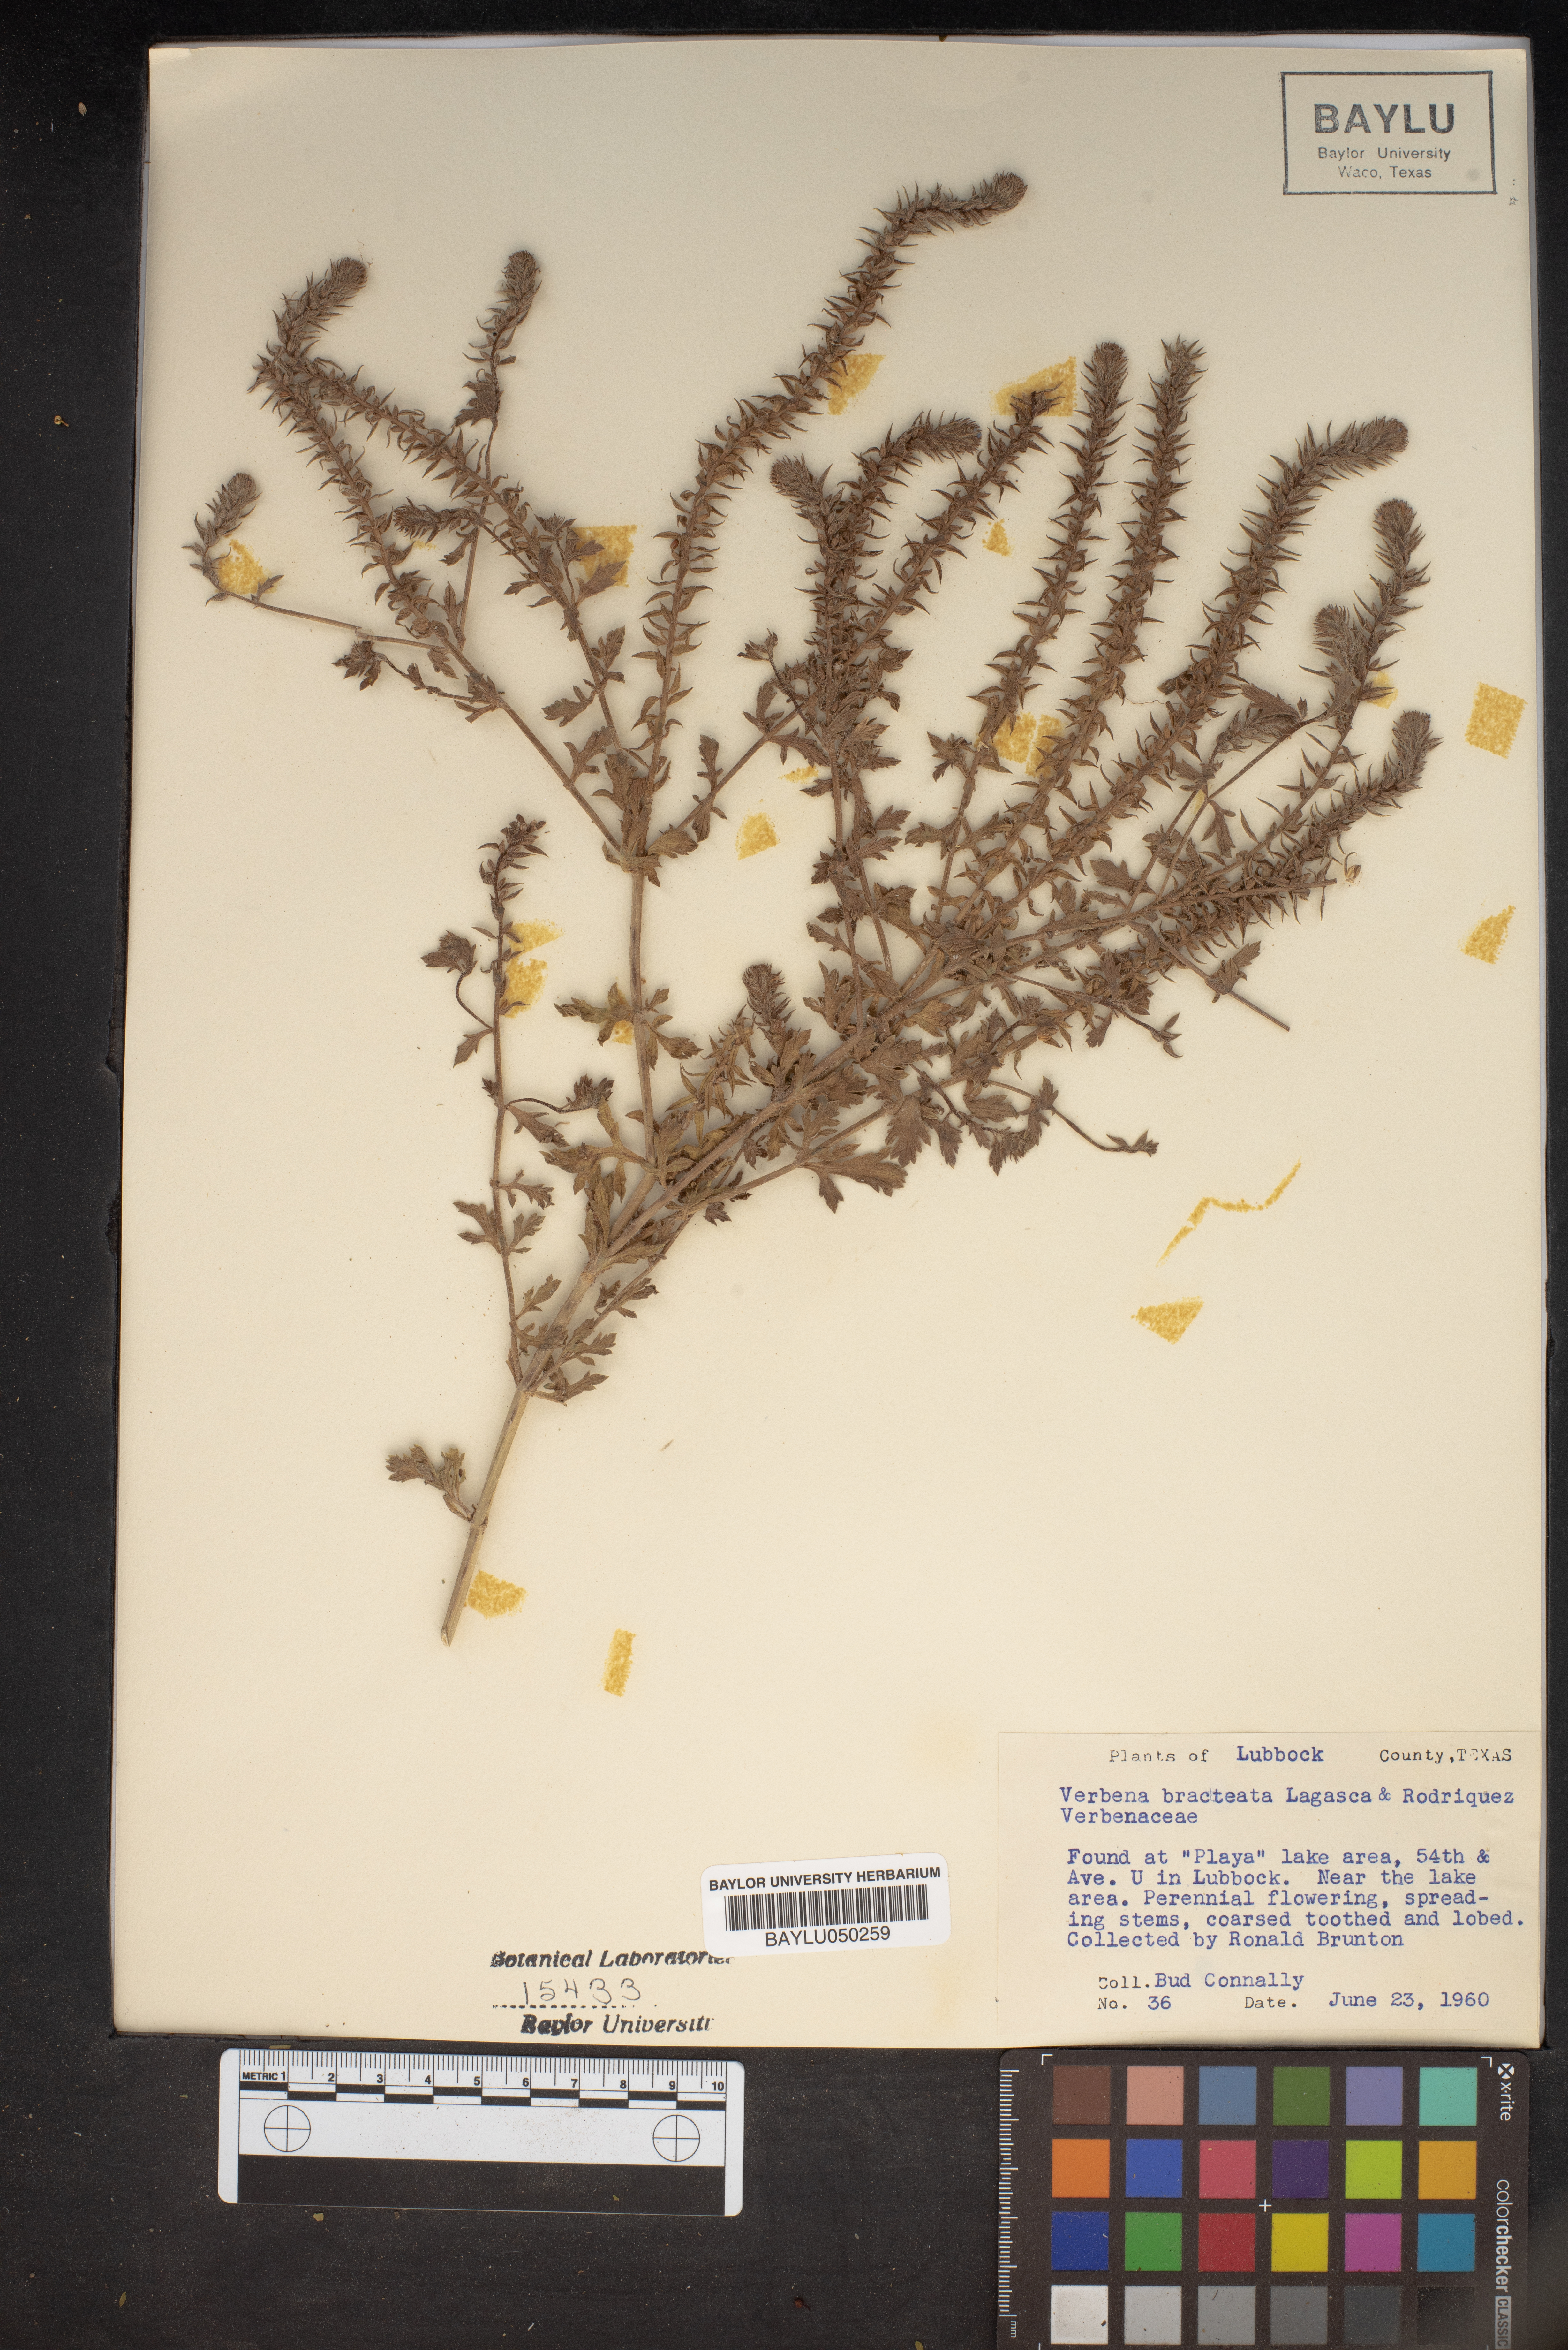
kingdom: Plantae
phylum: Tracheophyta
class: Magnoliopsida
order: Lamiales
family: Verbenaceae
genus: Verbena
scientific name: Verbena bracteata
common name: Bracted vervain
